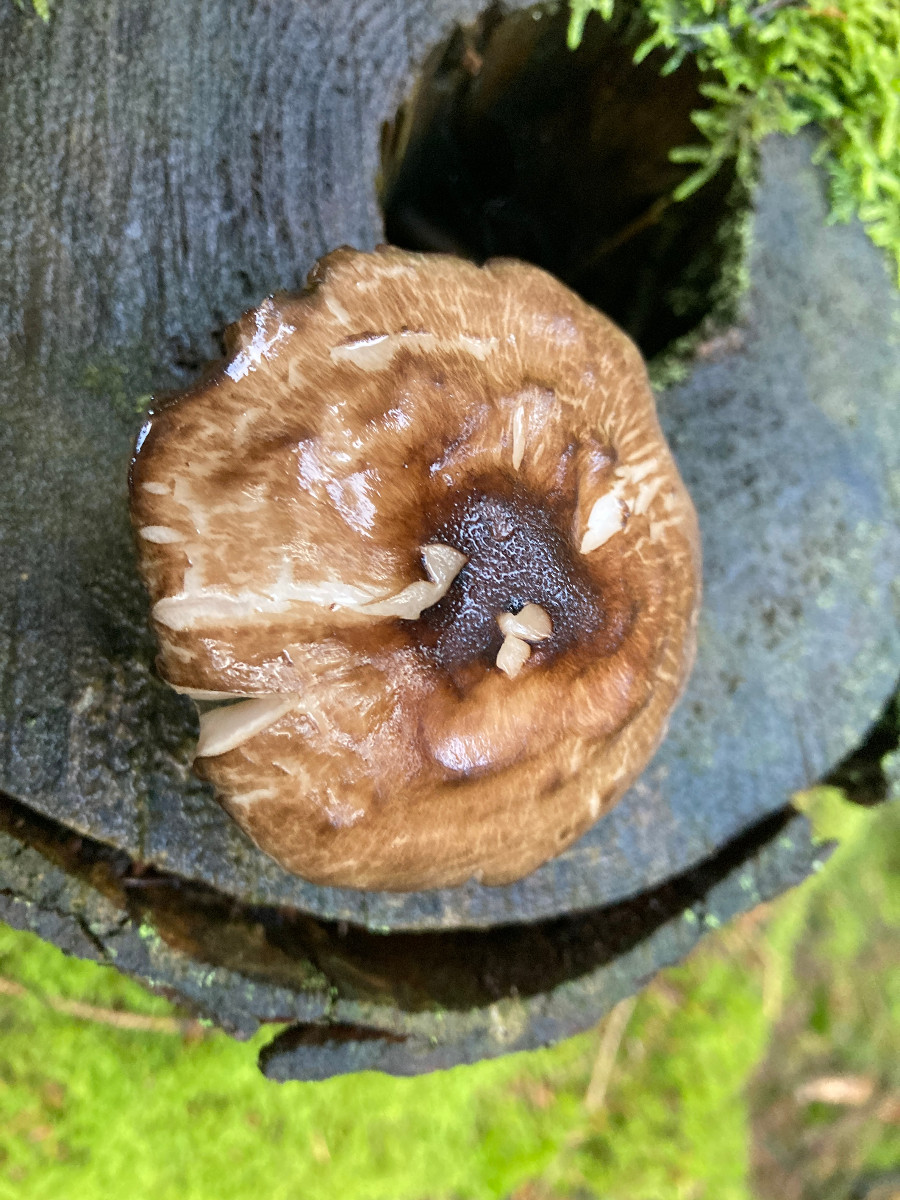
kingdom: Fungi
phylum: Basidiomycota
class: Agaricomycetes
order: Agaricales
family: Pluteaceae
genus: Pluteus
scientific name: Pluteus cervinus
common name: sodfarvet skærmhat
